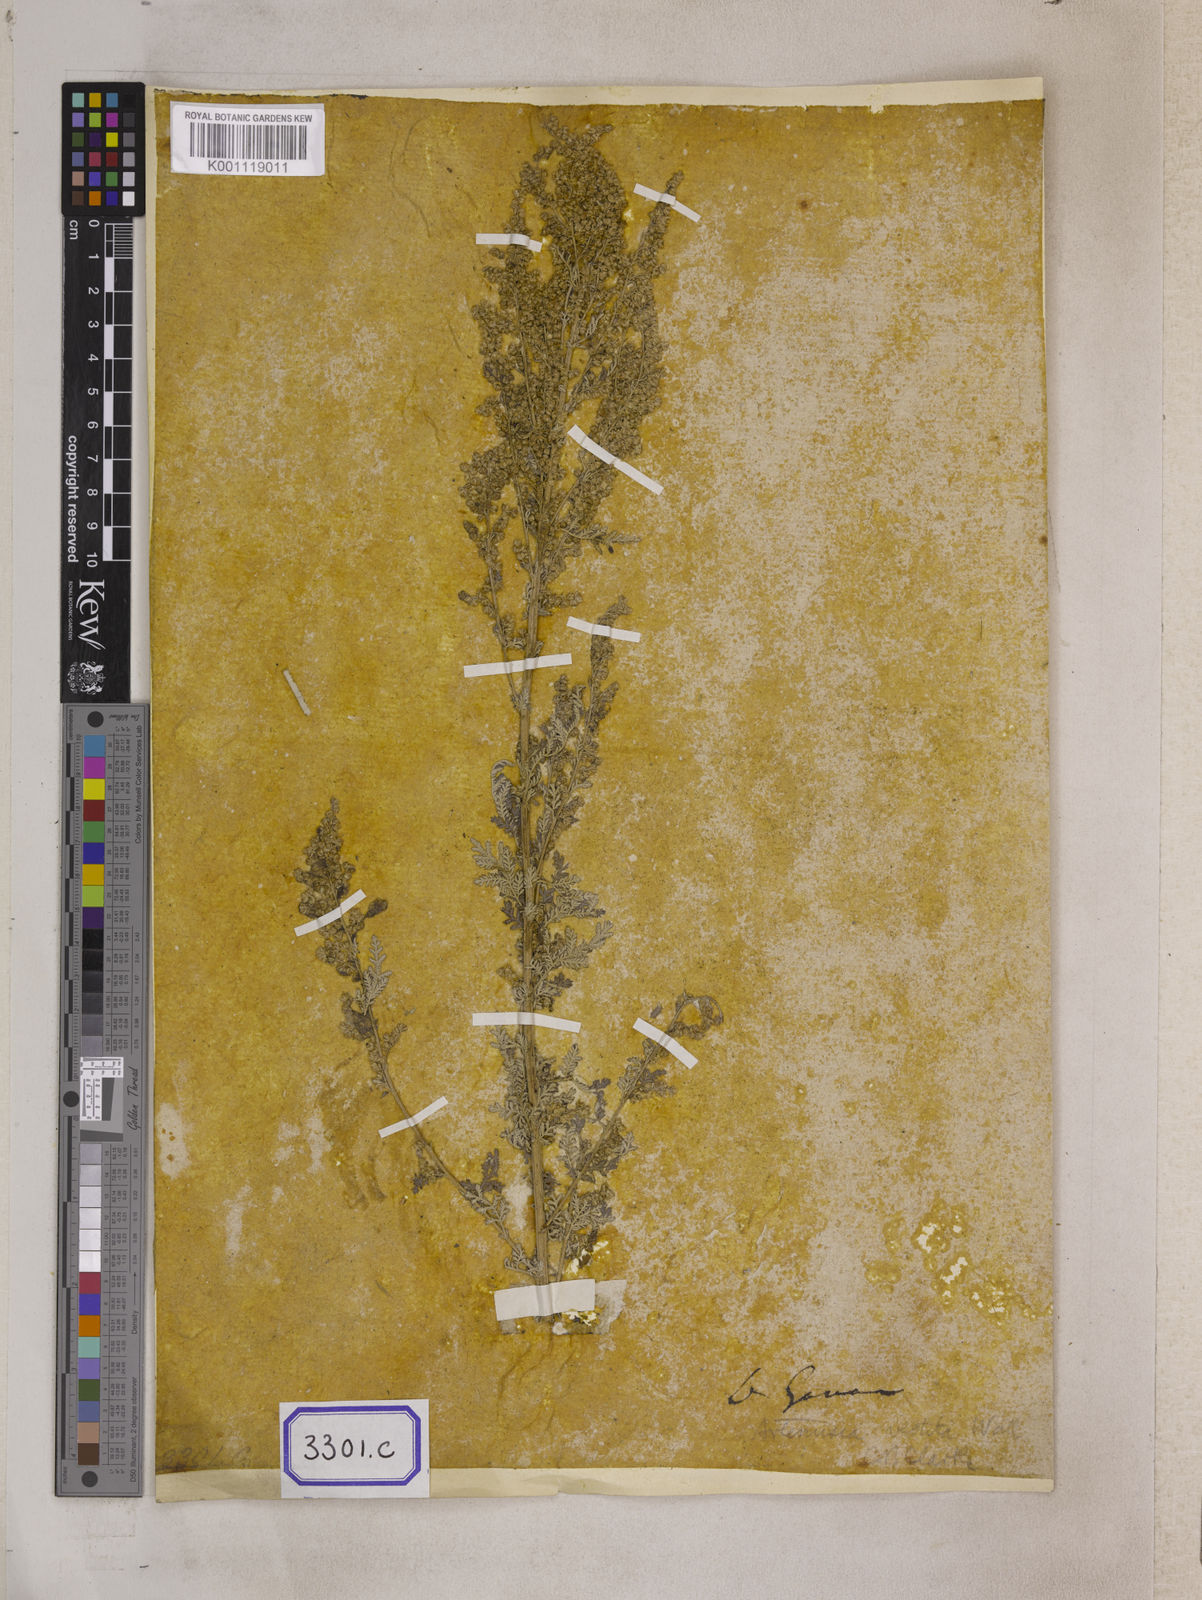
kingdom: Plantae
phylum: Tracheophyta
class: Magnoliopsida
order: Asterales
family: Asteraceae
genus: Artemisia
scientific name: Artemisia vestita
